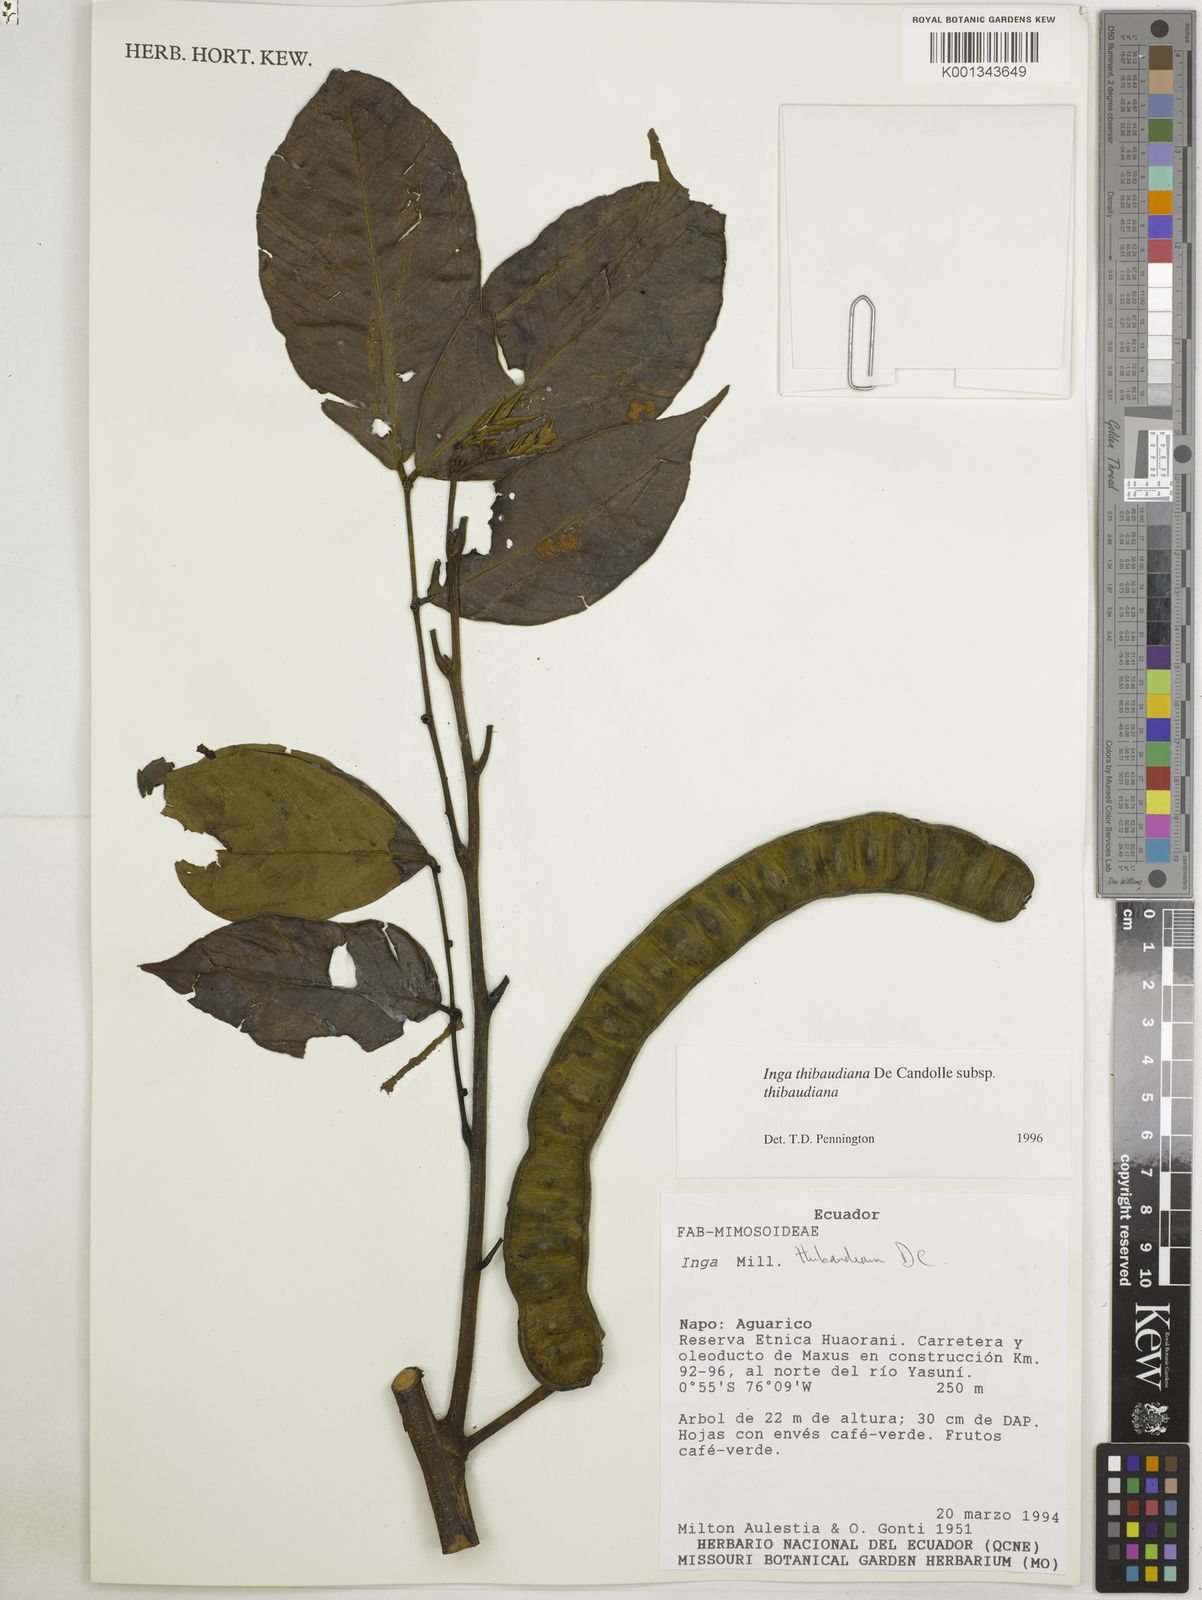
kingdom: Plantae
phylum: Tracheophyta
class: Magnoliopsida
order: Fabales
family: Fabaceae
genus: Inga
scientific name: Inga thibaudiana
